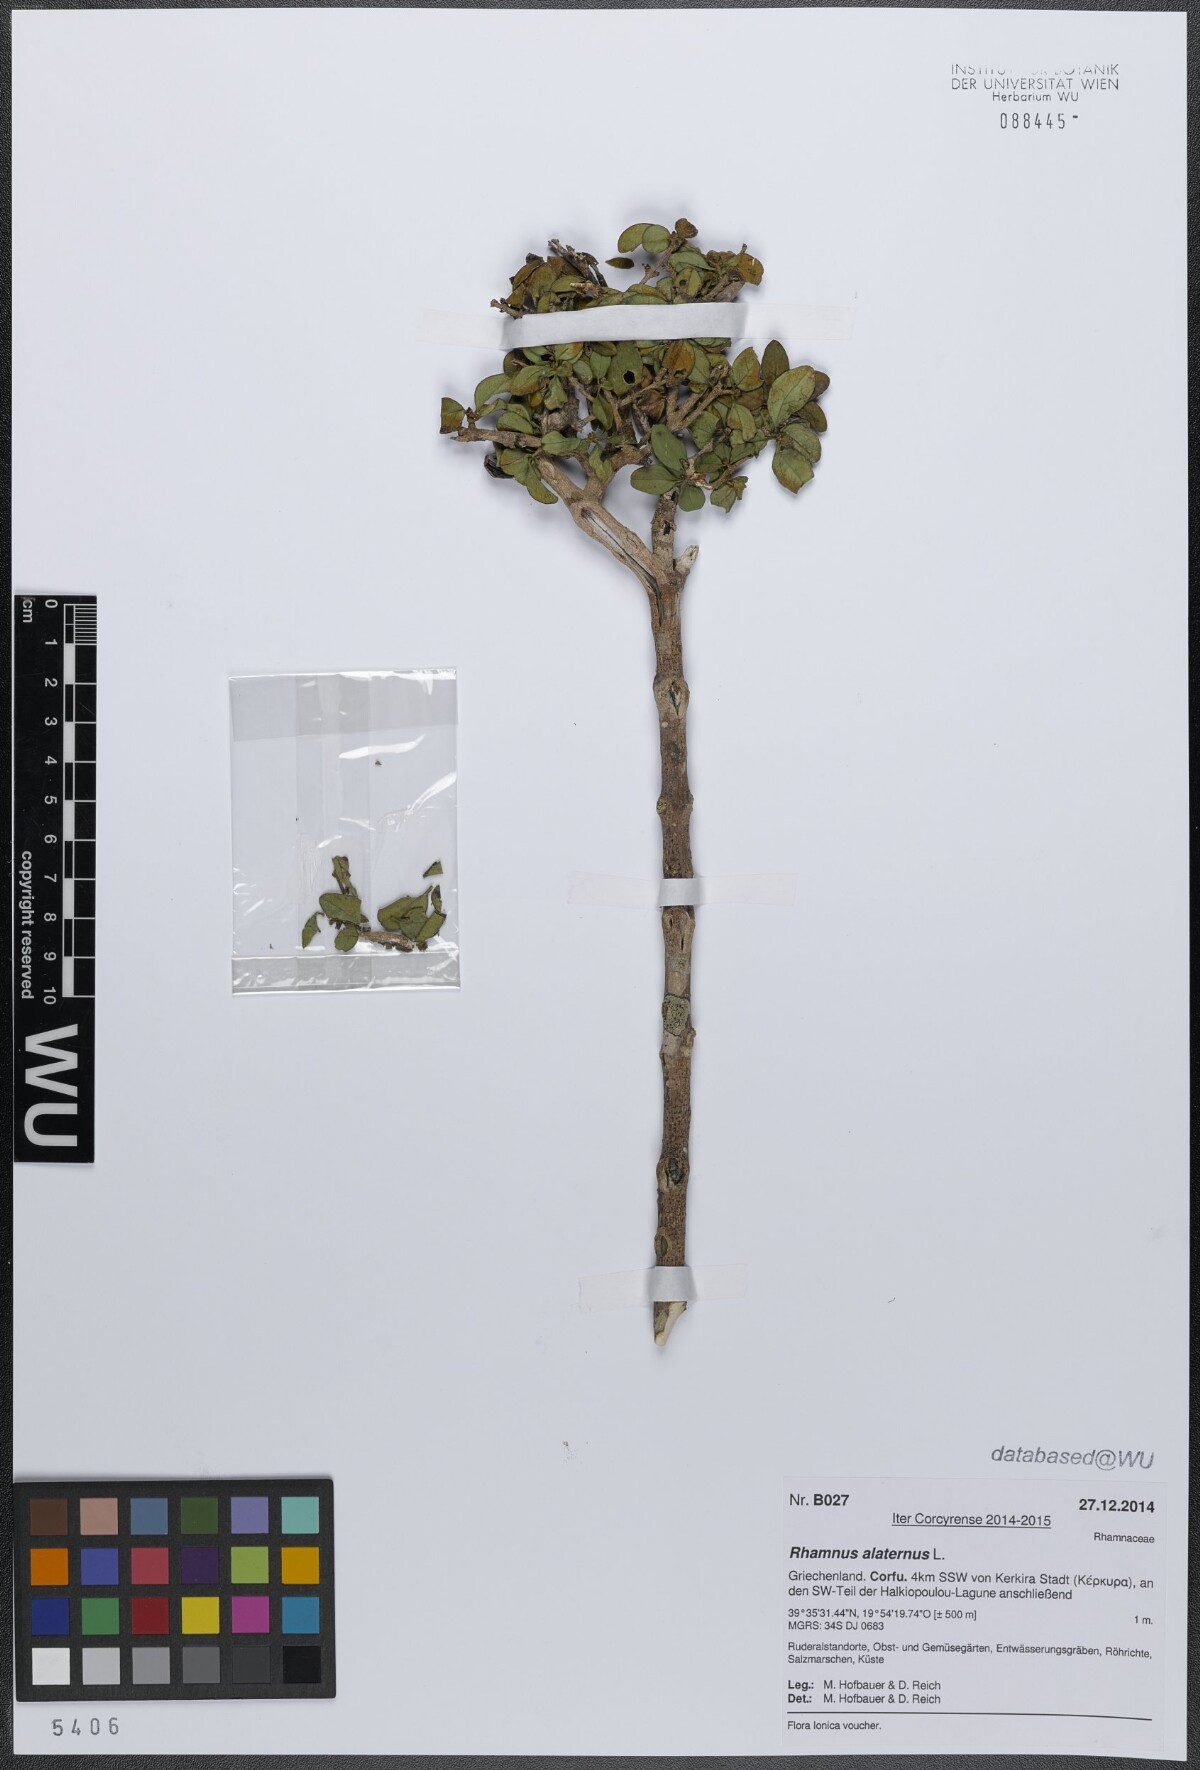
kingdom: Plantae
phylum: Tracheophyta
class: Magnoliopsida
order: Rosales
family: Rhamnaceae
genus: Rhamnus
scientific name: Rhamnus alaternus
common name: Mediterranean buckthorn
